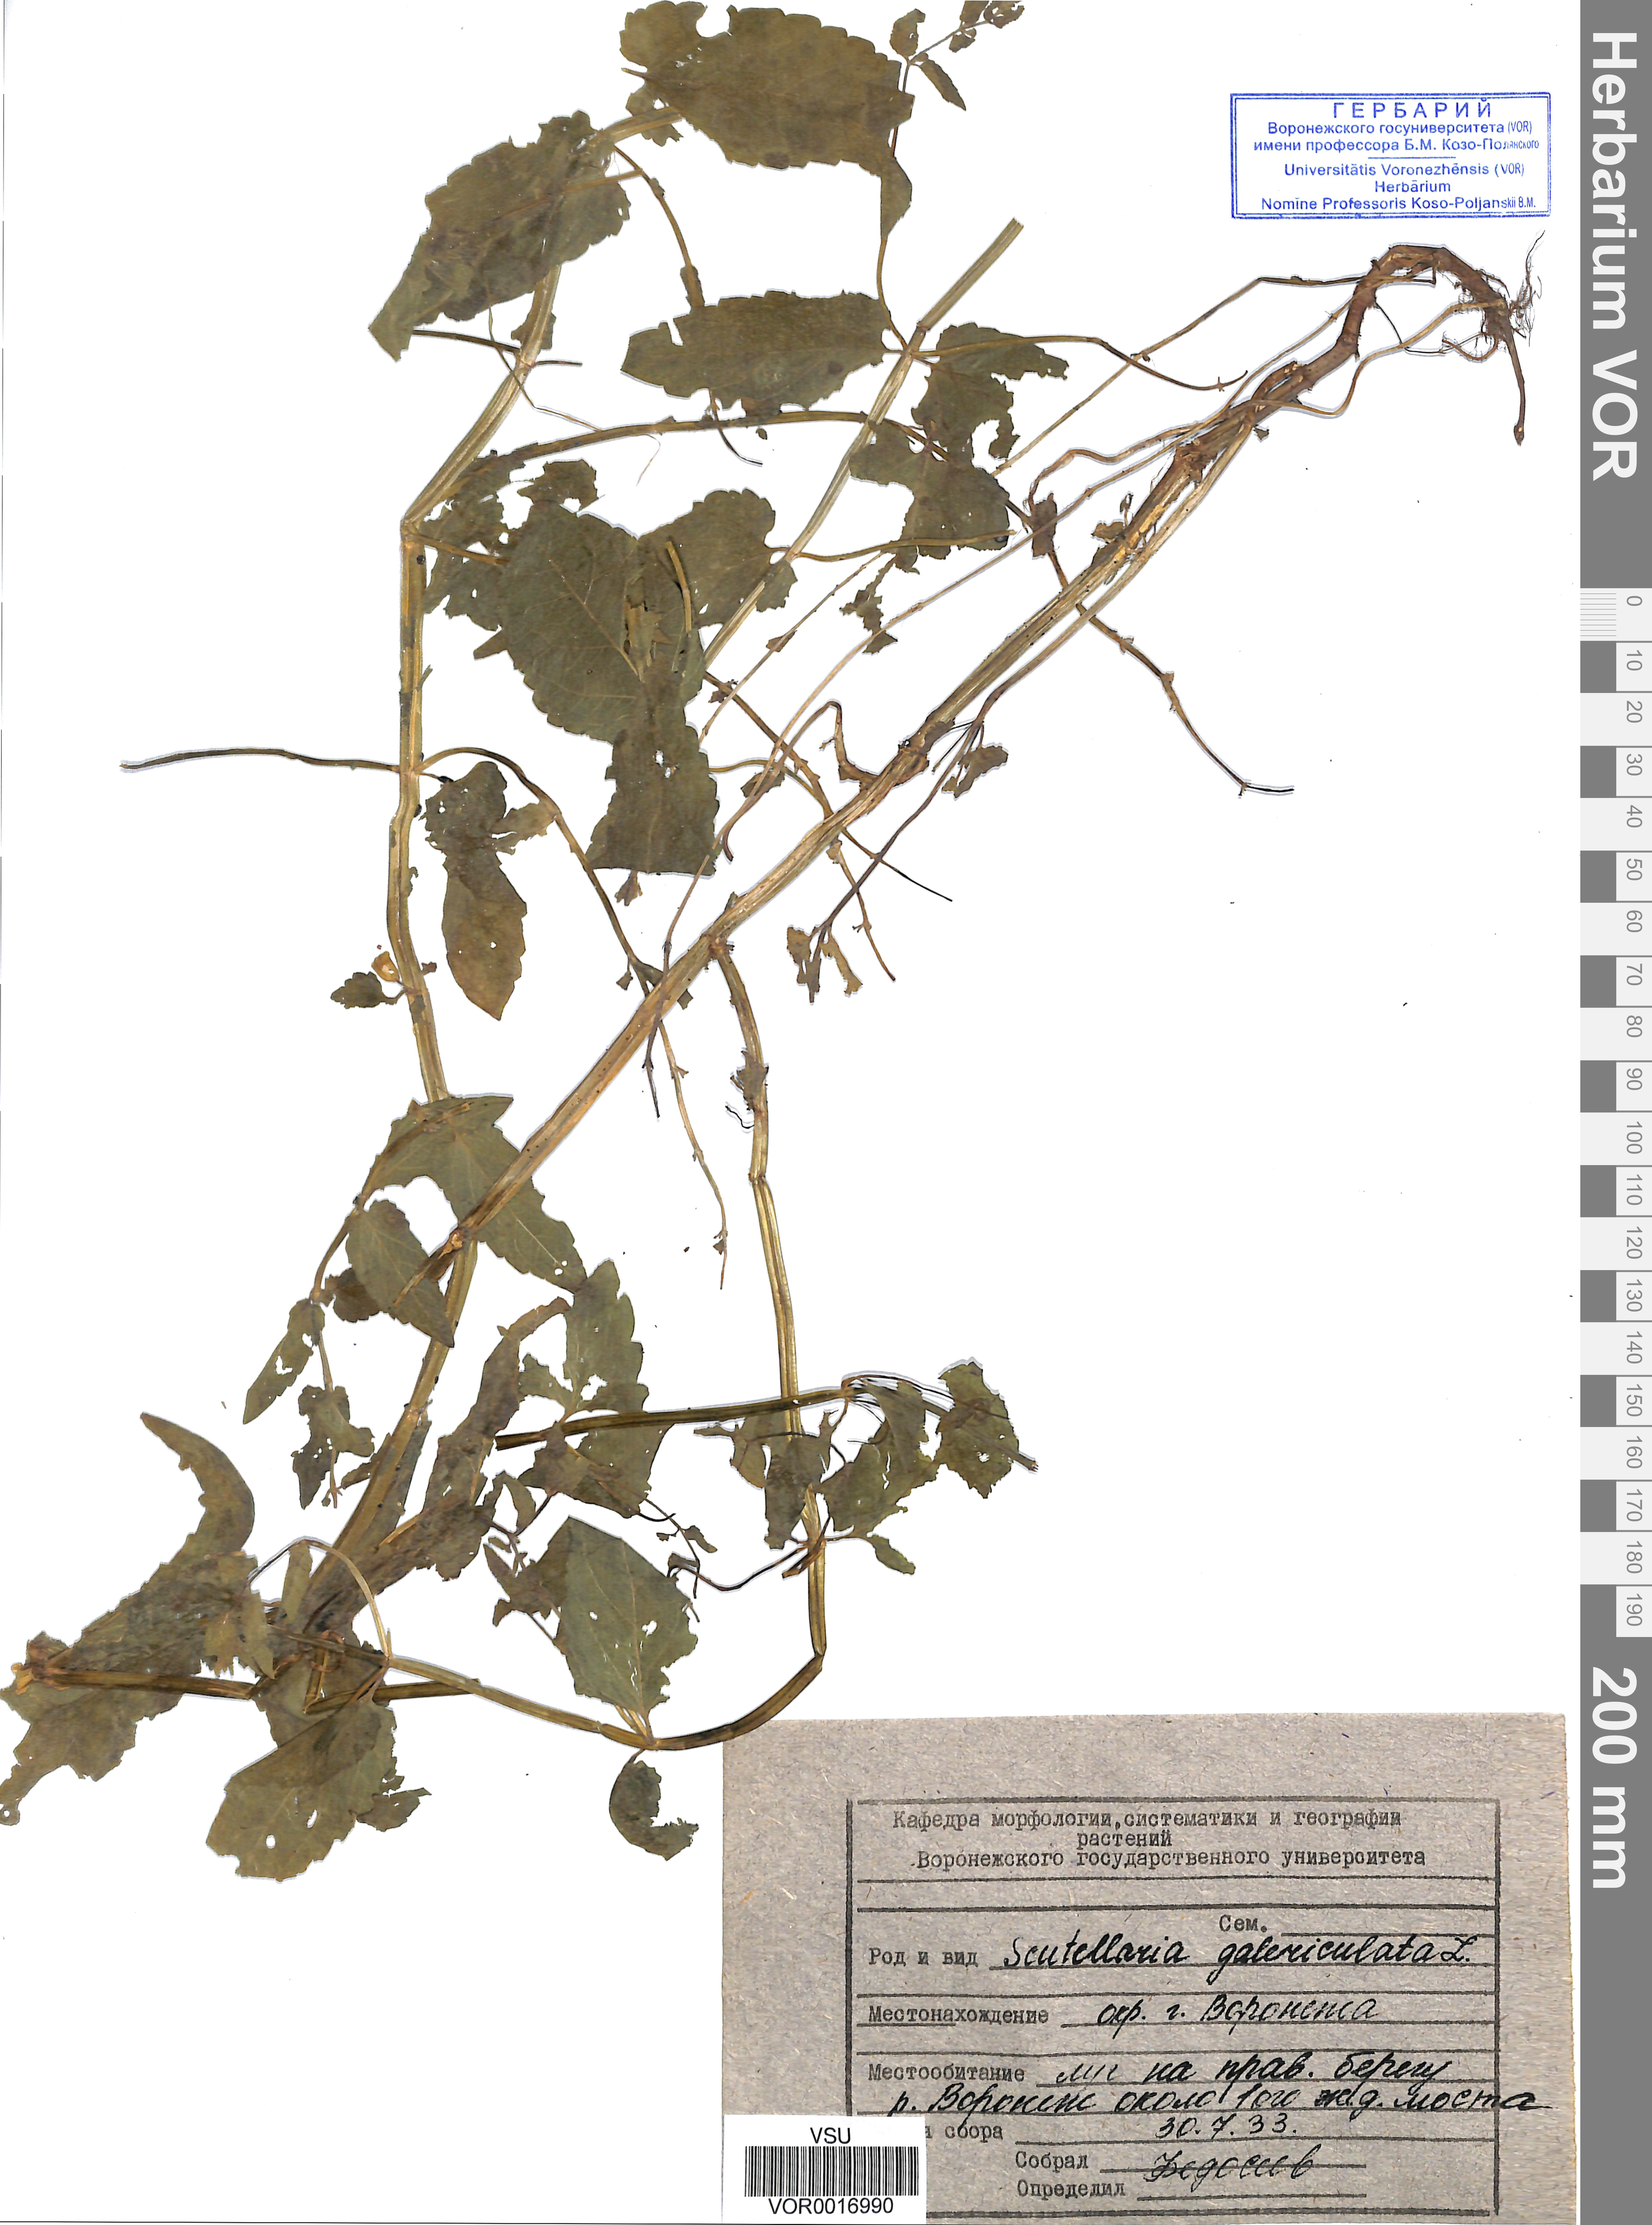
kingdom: Plantae
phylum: Tracheophyta
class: Magnoliopsida
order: Lamiales
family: Lamiaceae
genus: Scutellaria
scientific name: Scutellaria galericulata
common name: Skullcap
